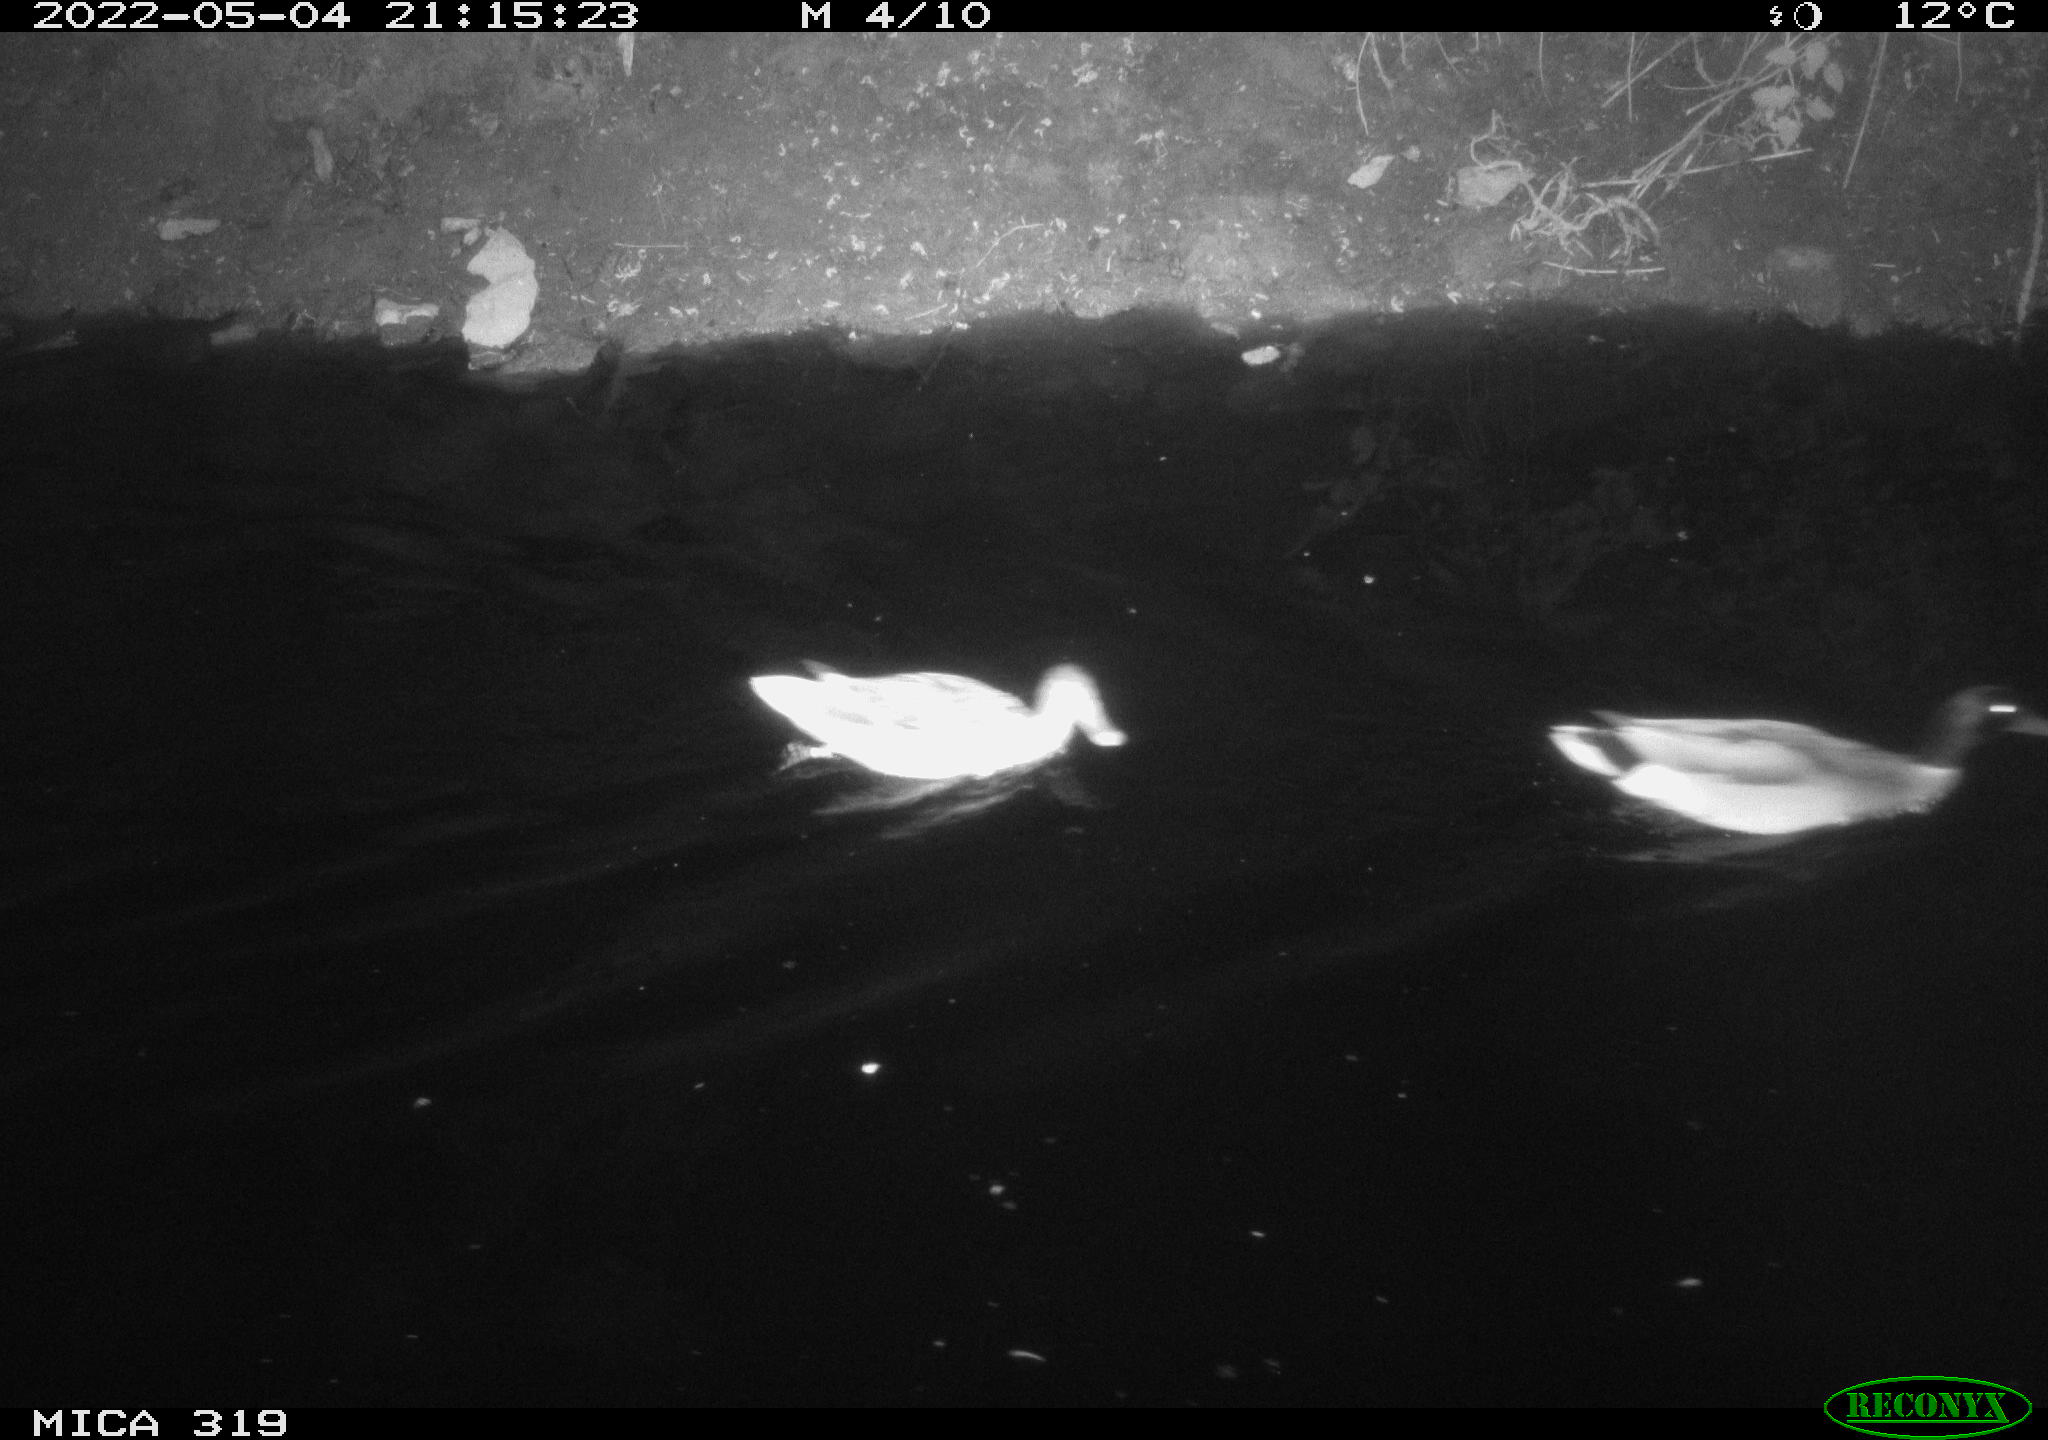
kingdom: Animalia
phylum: Chordata
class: Aves
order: Anseriformes
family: Anatidae
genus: Anas
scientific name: Anas platyrhynchos
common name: Mallard
